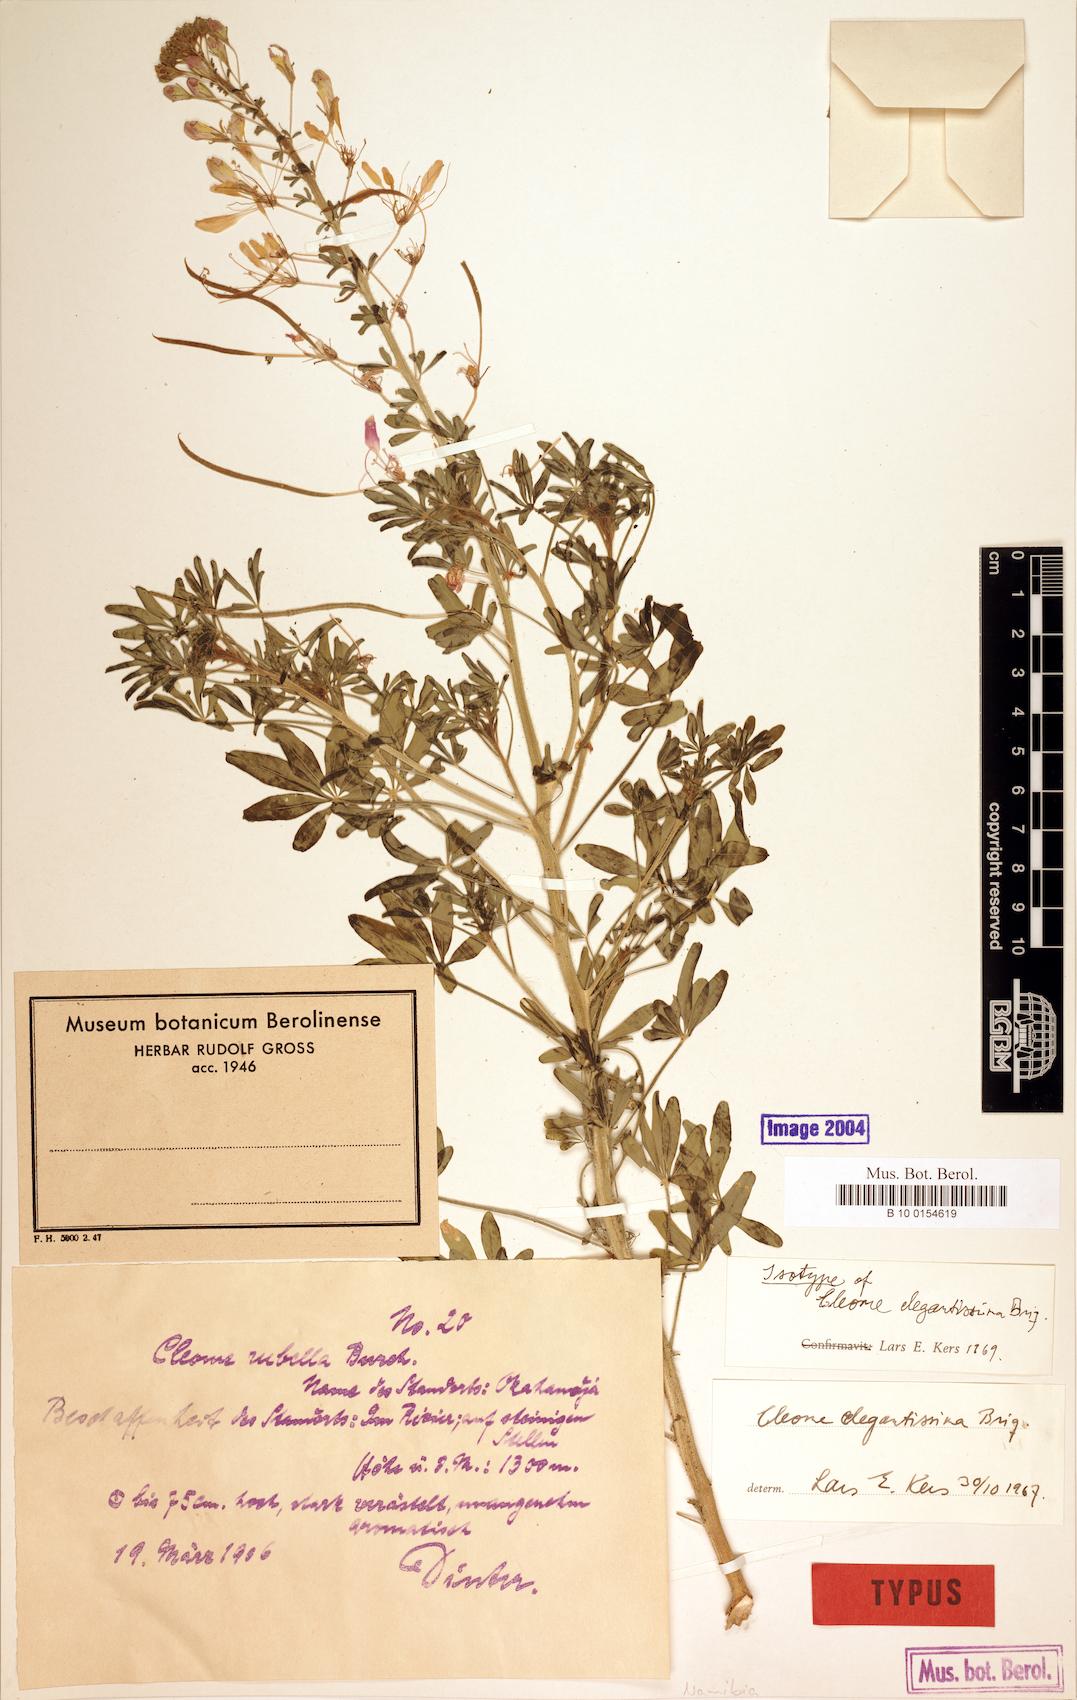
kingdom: Plantae
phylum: Tracheophyta
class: Magnoliopsida
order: Brassicales
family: Cleomaceae
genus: Sieruela
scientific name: Sieruela elegantissima
